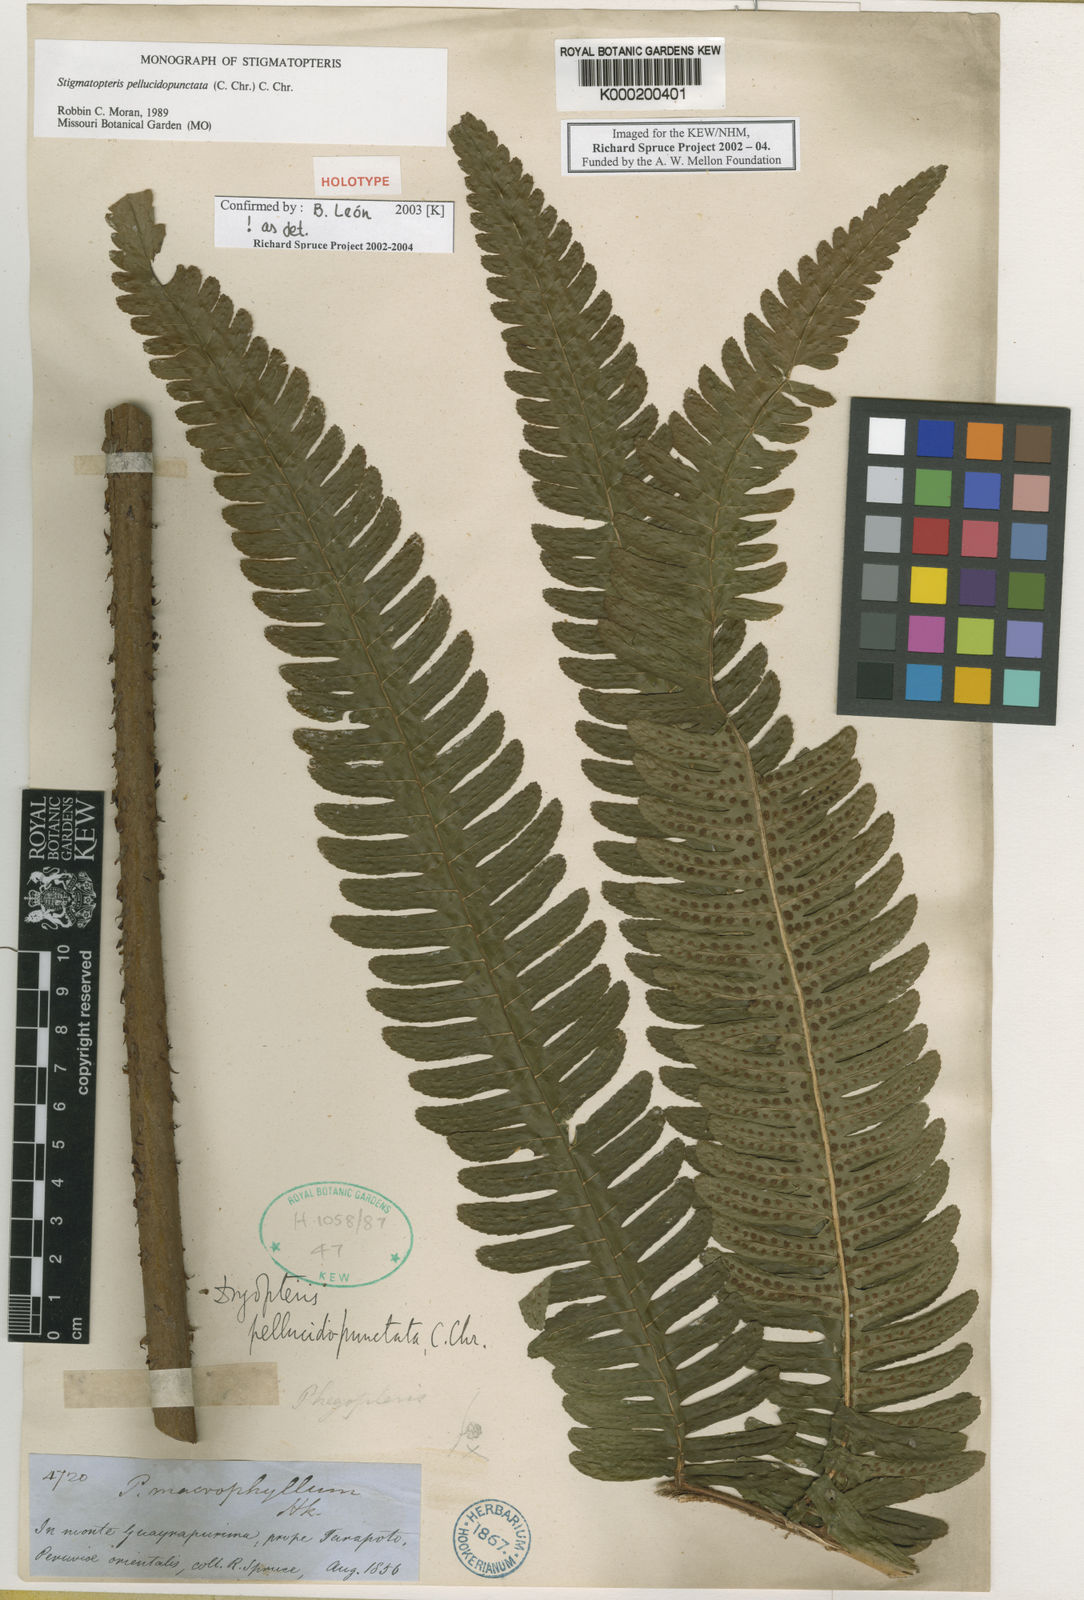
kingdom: Plantae
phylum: Tracheophyta
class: Polypodiopsida
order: Polypodiales
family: Dryopteridaceae
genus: Stigmatopteris
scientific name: Stigmatopteris pellucidopunctata
